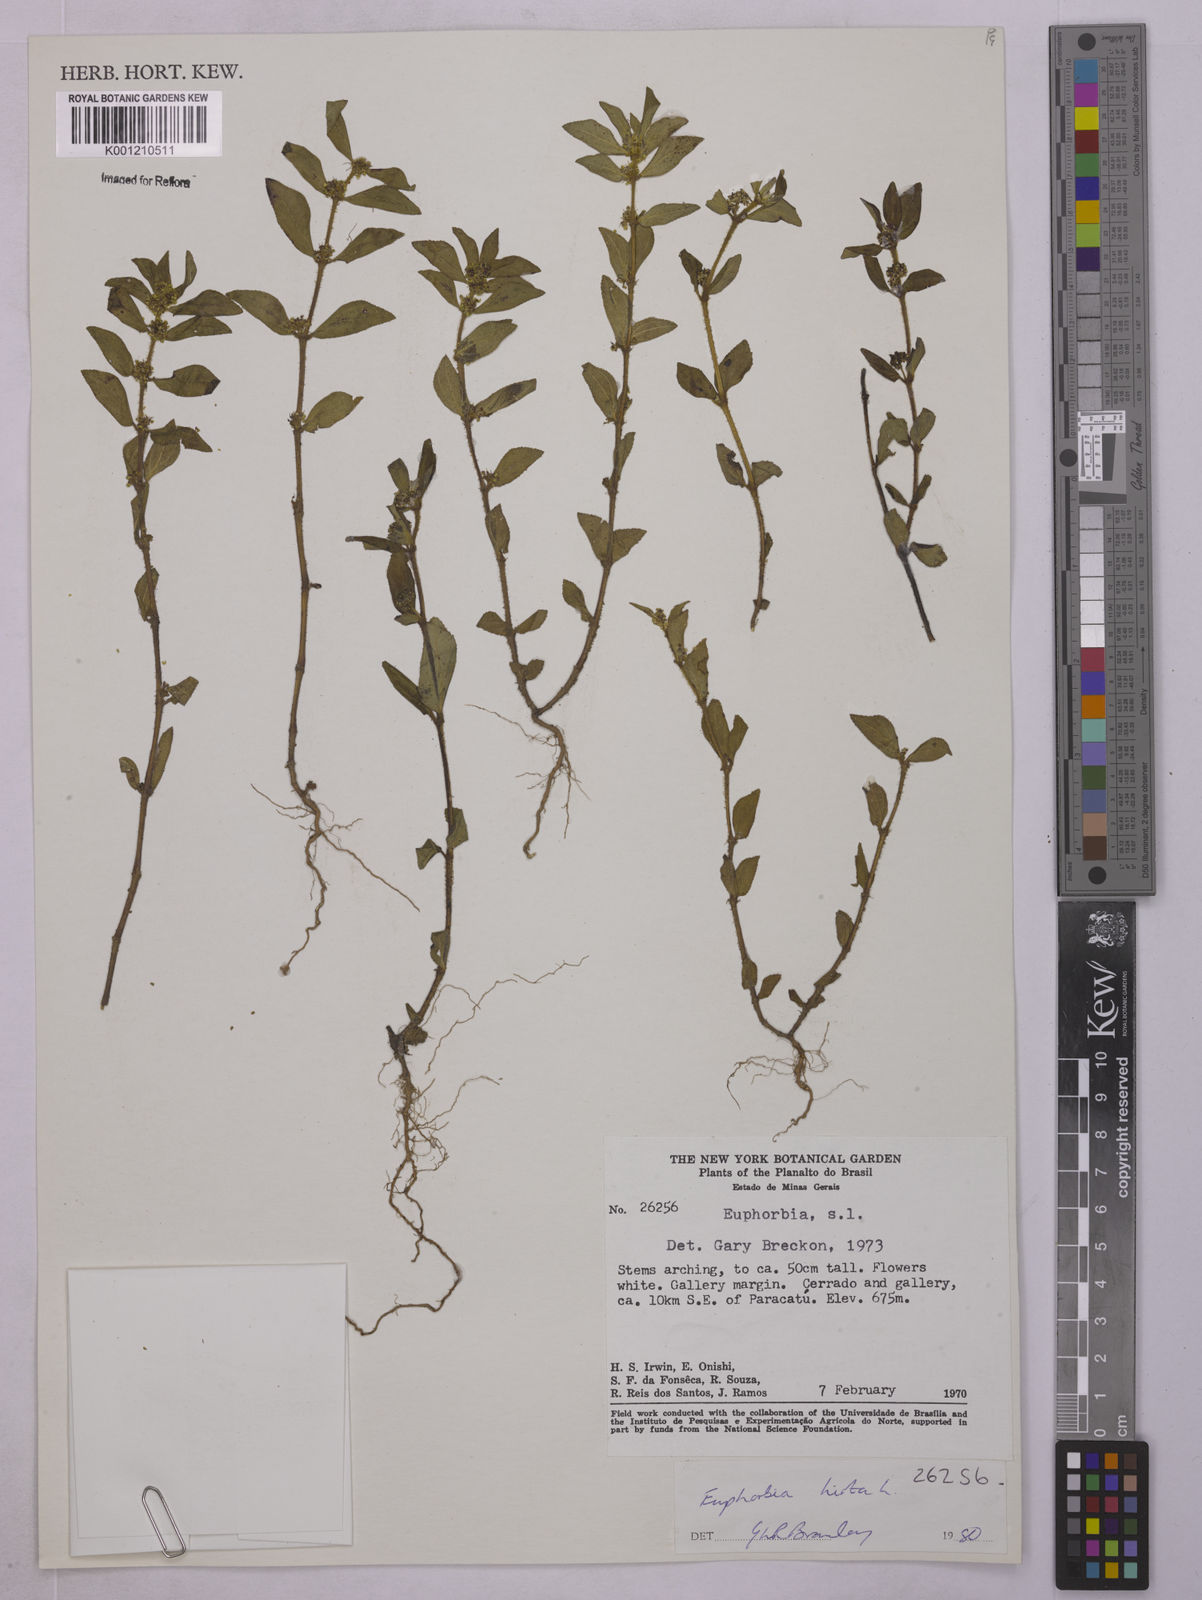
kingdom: Plantae
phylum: Tracheophyta
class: Magnoliopsida
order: Malpighiales
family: Euphorbiaceae
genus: Euphorbia
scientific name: Euphorbia hirta
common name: Pillpod sandmat
